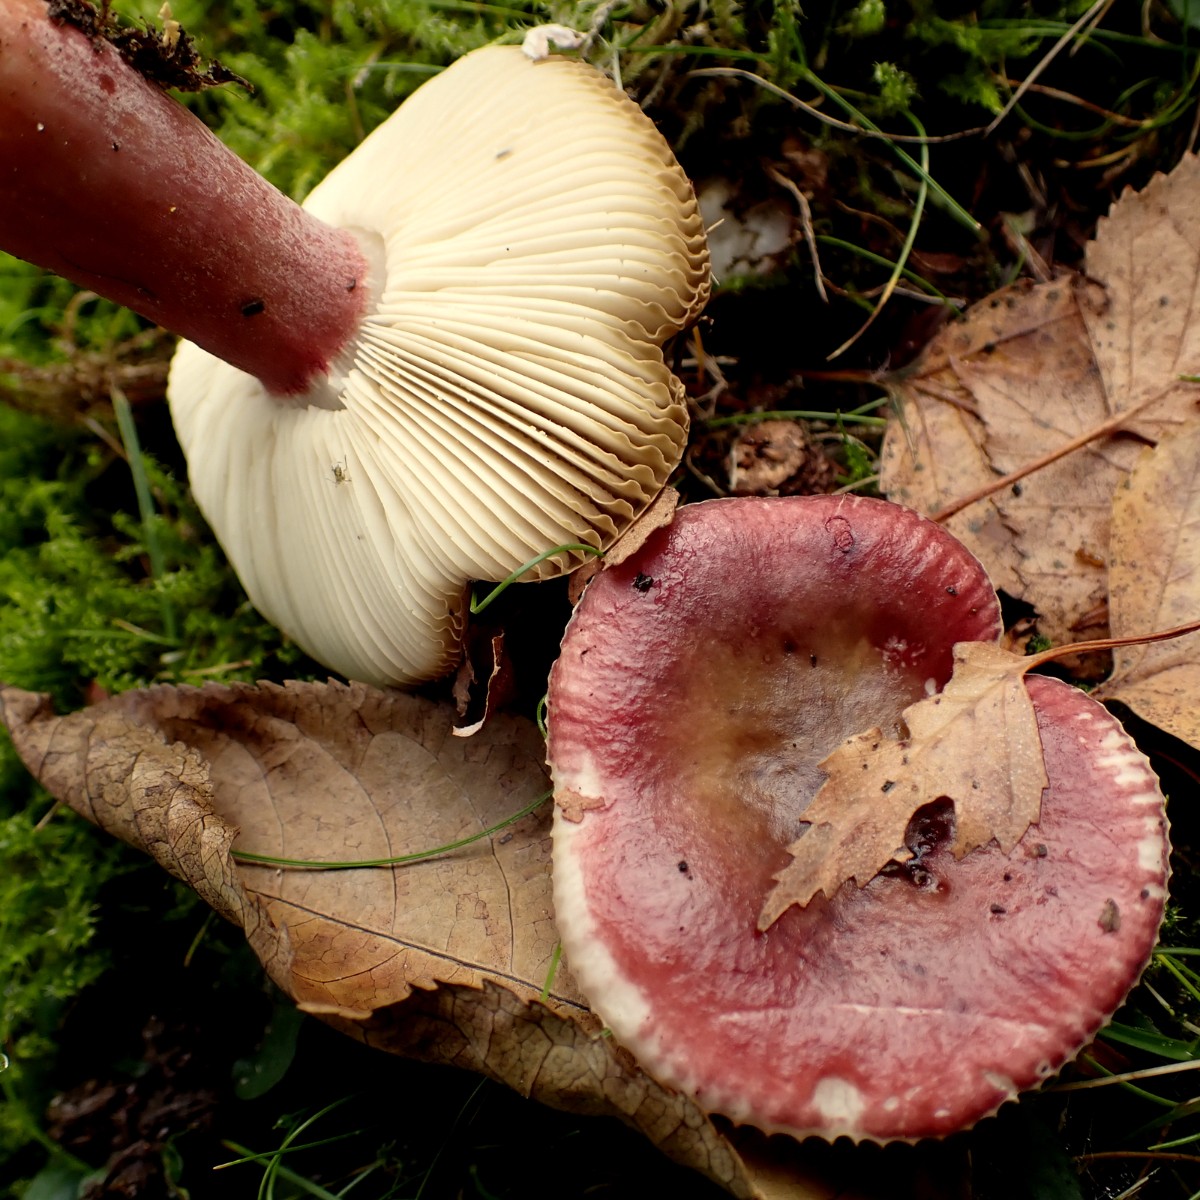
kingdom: Fungi
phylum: Basidiomycota
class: Agaricomycetes
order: Russulales
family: Russulaceae
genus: Russula
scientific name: Russula queletii
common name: Quélets skørhat
